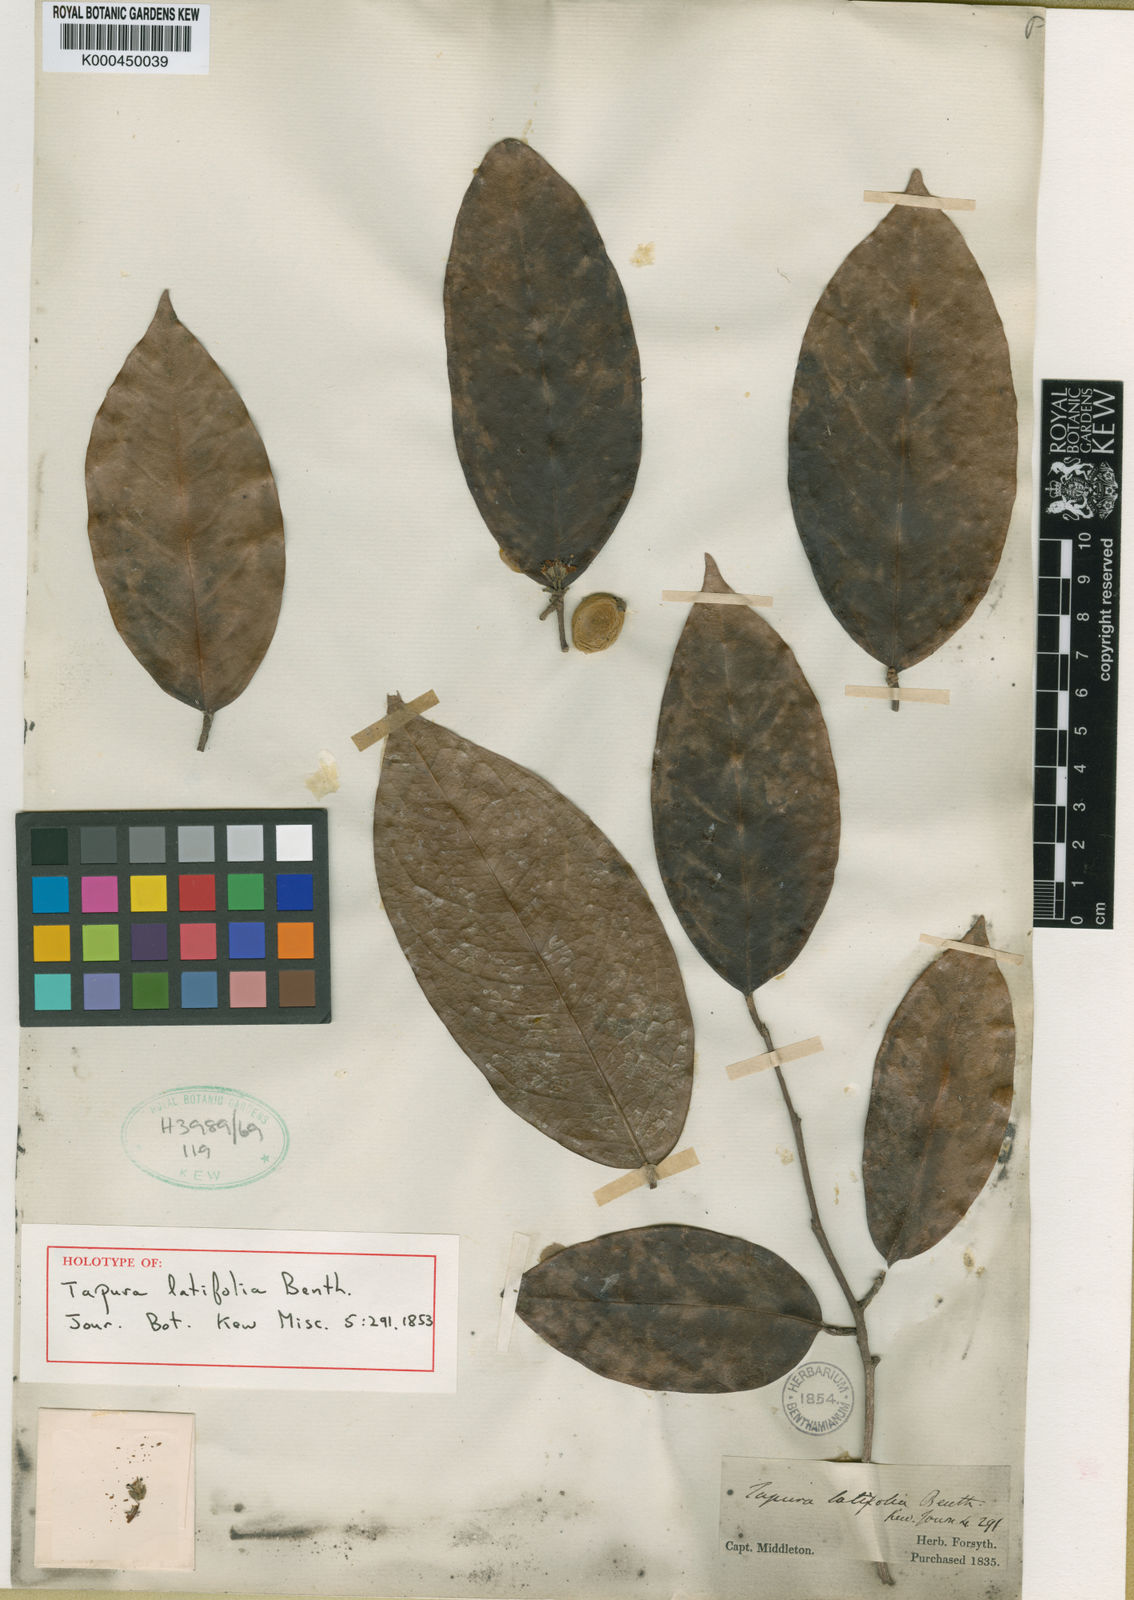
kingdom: Plantae
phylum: Tracheophyta
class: Magnoliopsida
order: Malpighiales
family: Dichapetalaceae
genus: Tapura
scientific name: Tapura latifolia
